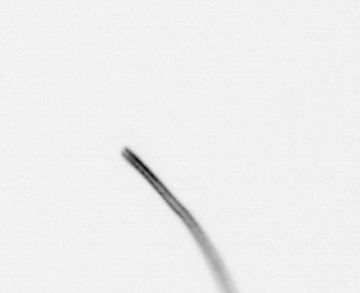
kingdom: Chromista
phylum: Ochrophyta
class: Bacillariophyceae
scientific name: Bacillariophyceae
